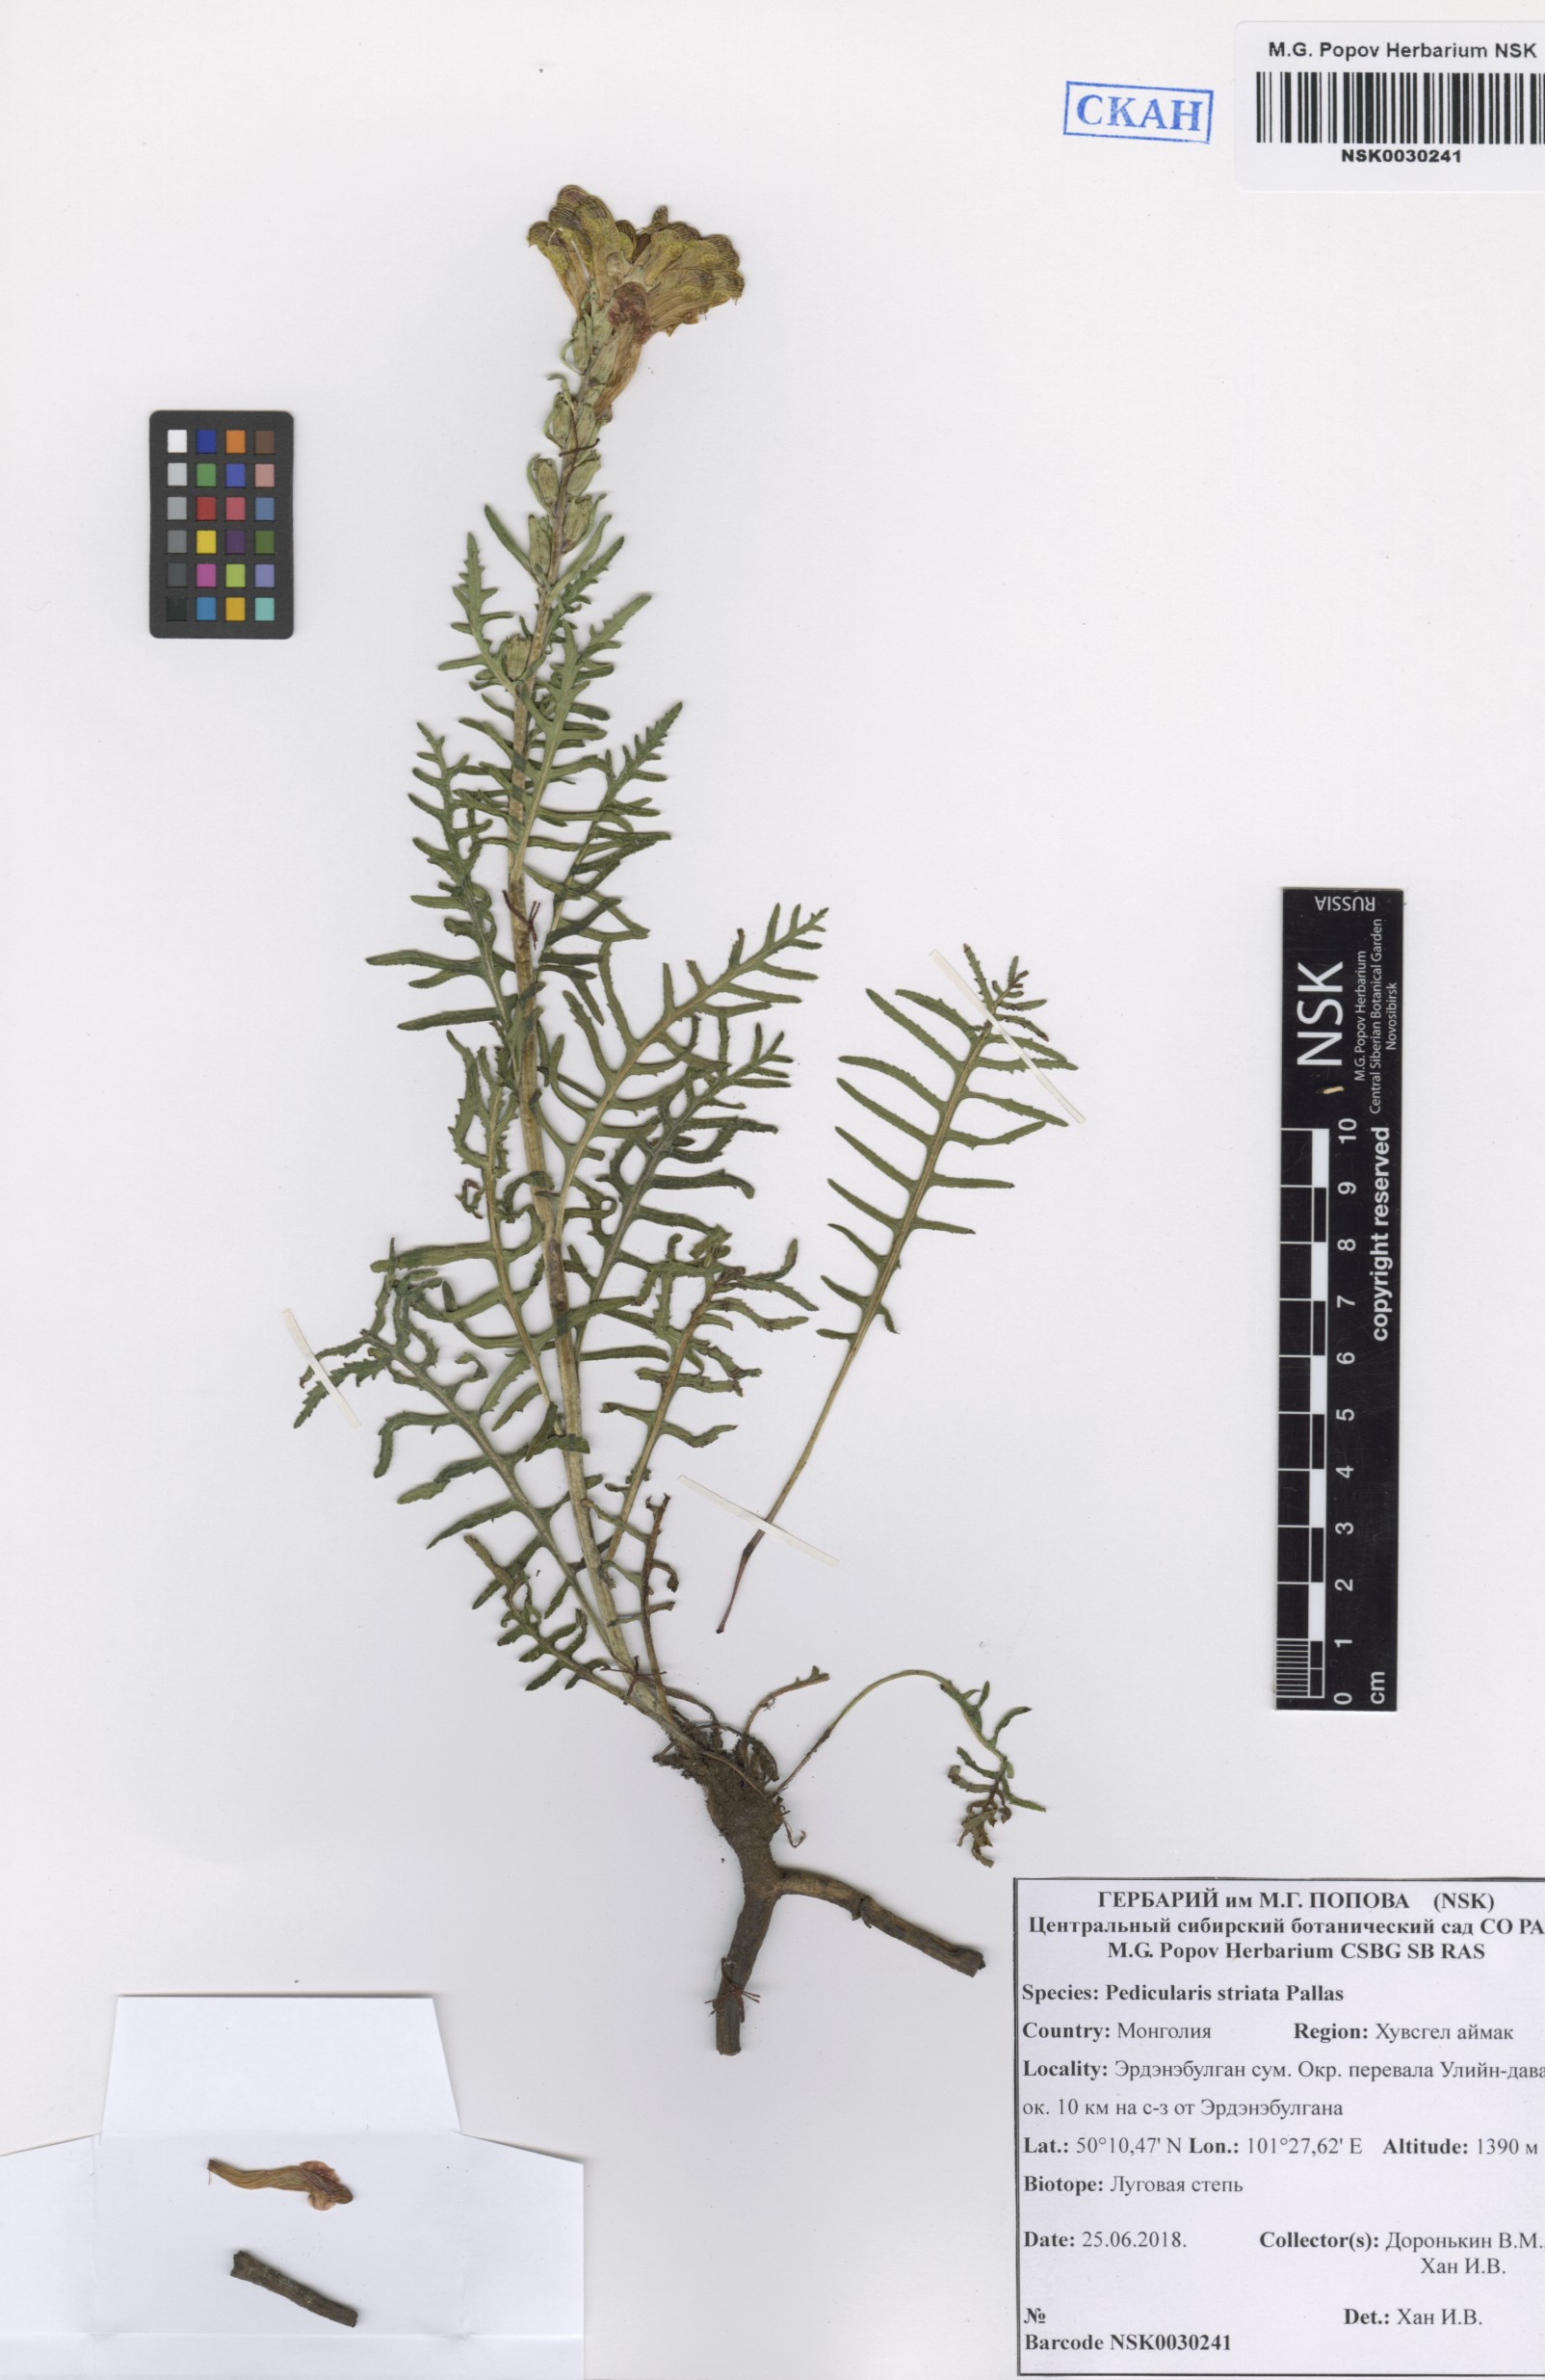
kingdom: Plantae
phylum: Tracheophyta
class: Magnoliopsida
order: Lamiales
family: Orobanchaceae
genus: Pedicularis
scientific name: Pedicularis striata
